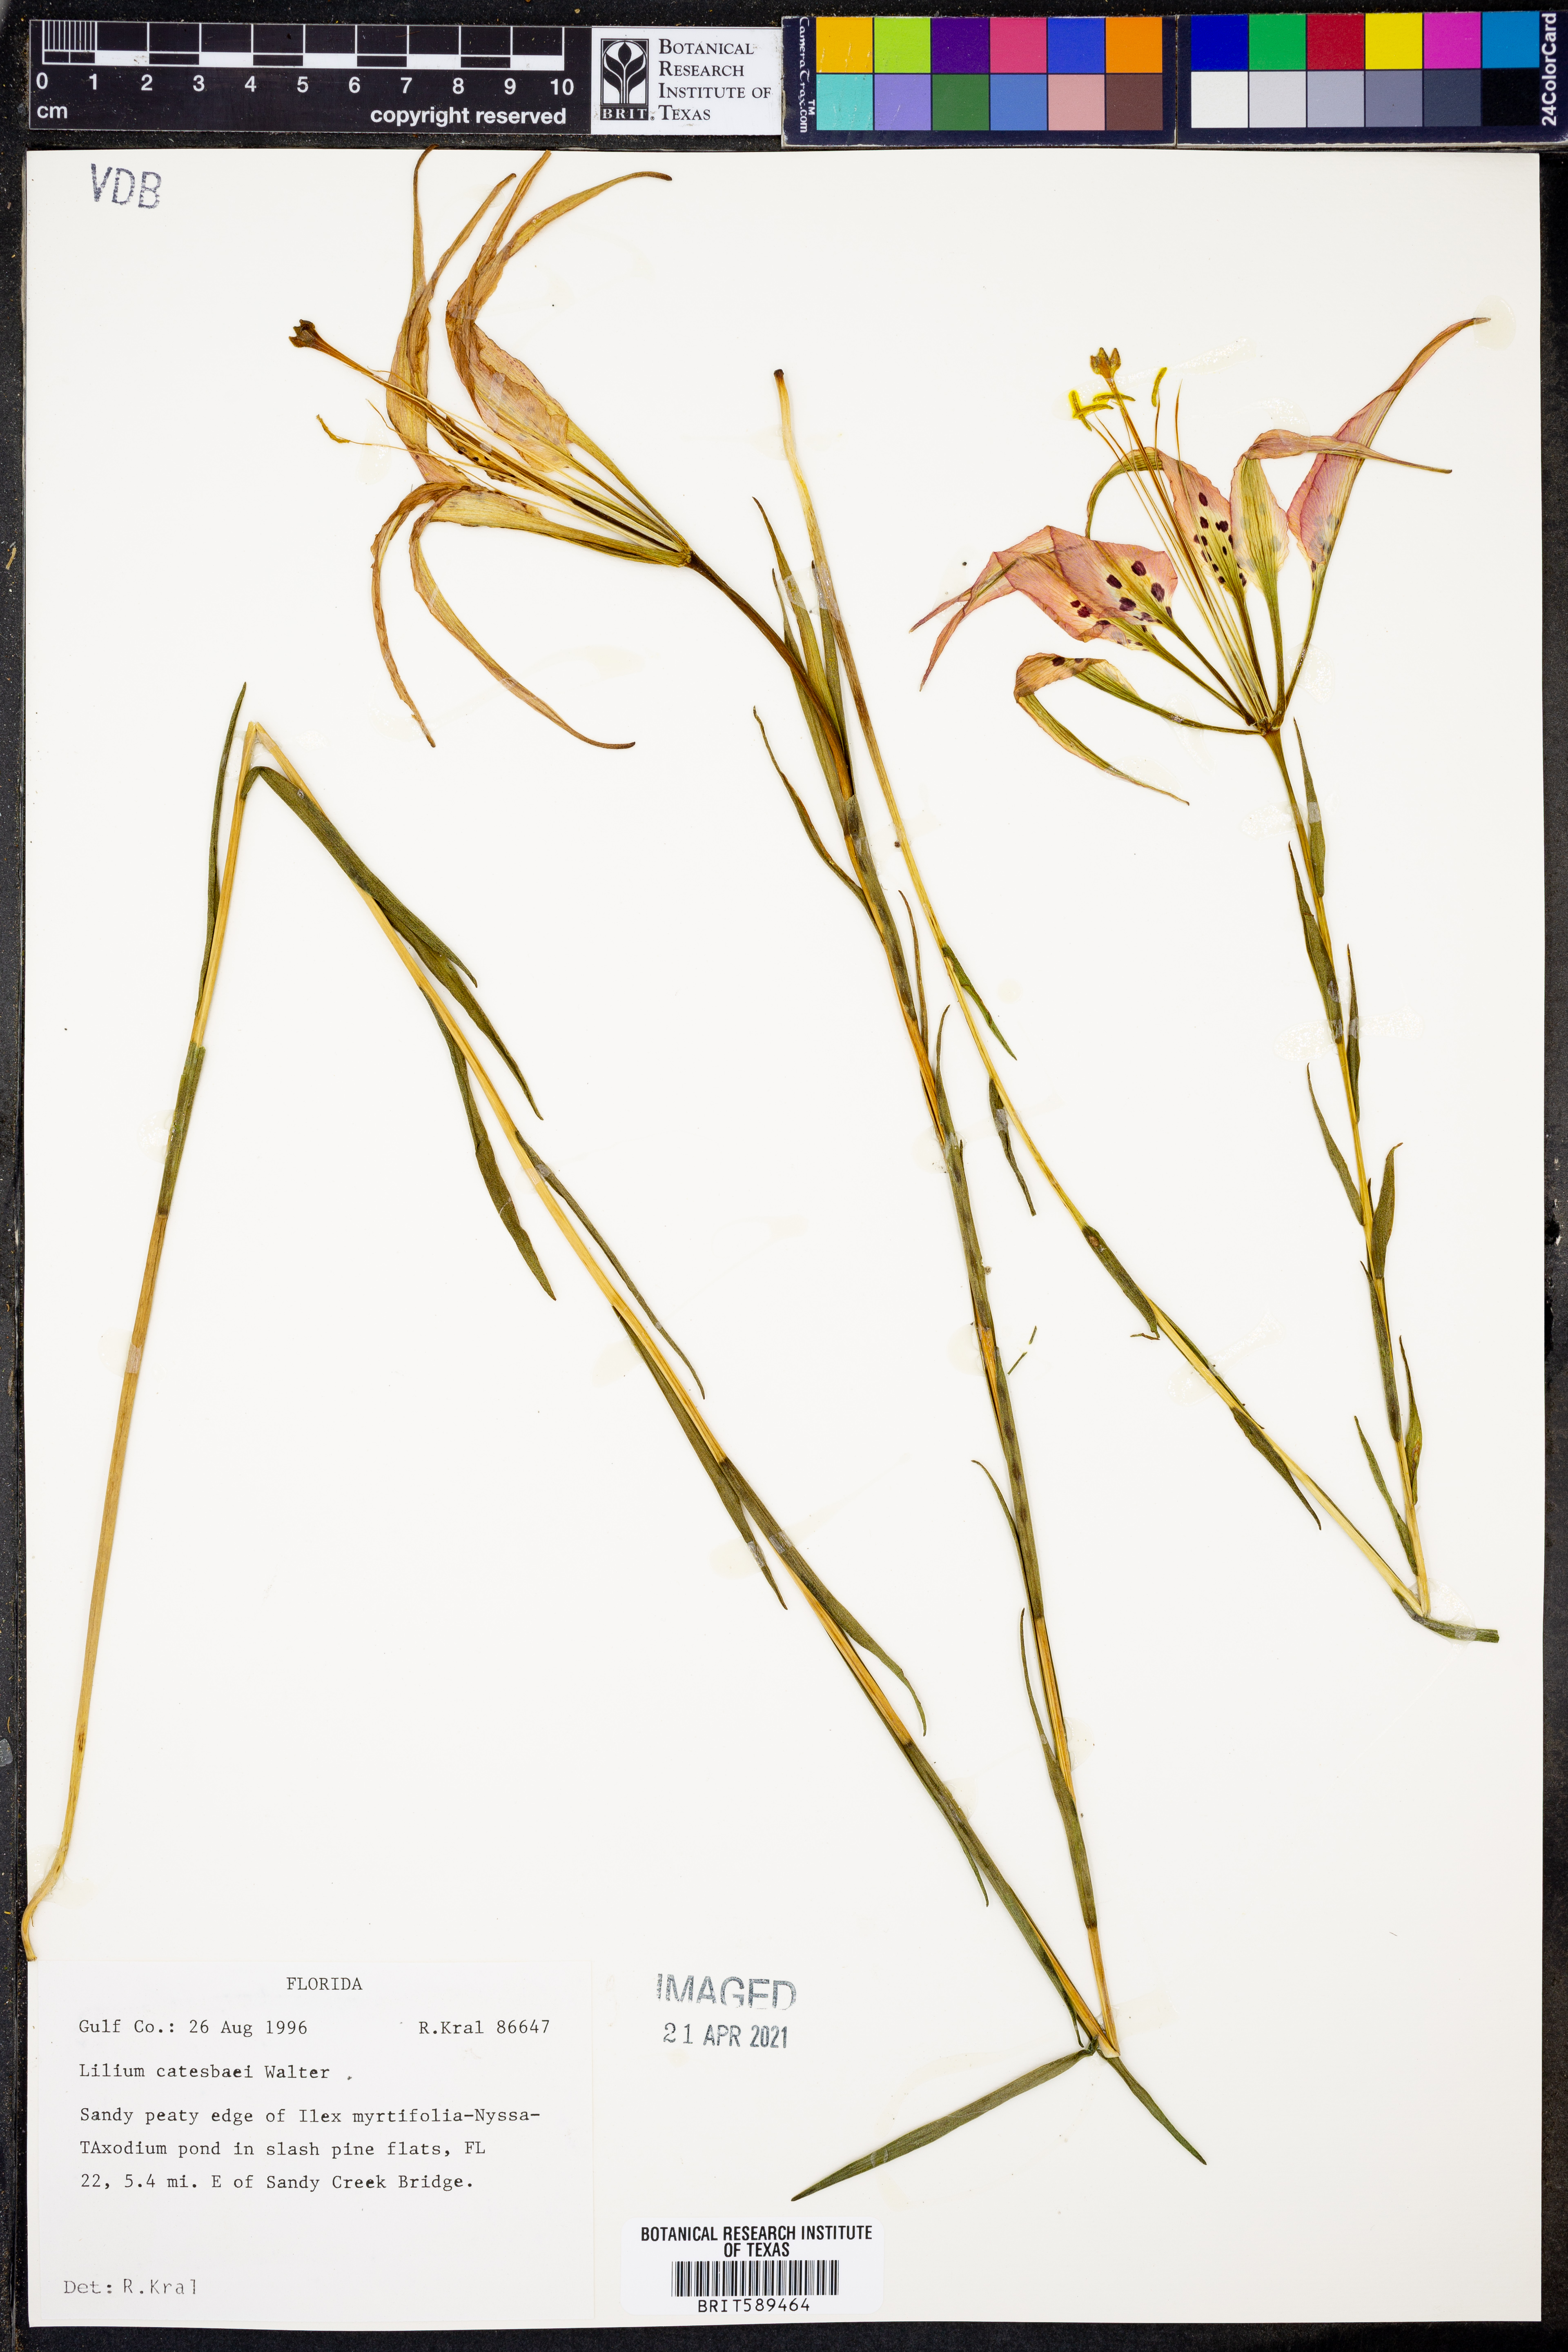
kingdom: Plantae
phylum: Tracheophyta
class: Liliopsida
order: Liliales
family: Liliaceae
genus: Lilium
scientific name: Lilium catesbaei
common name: Catesby's lily
